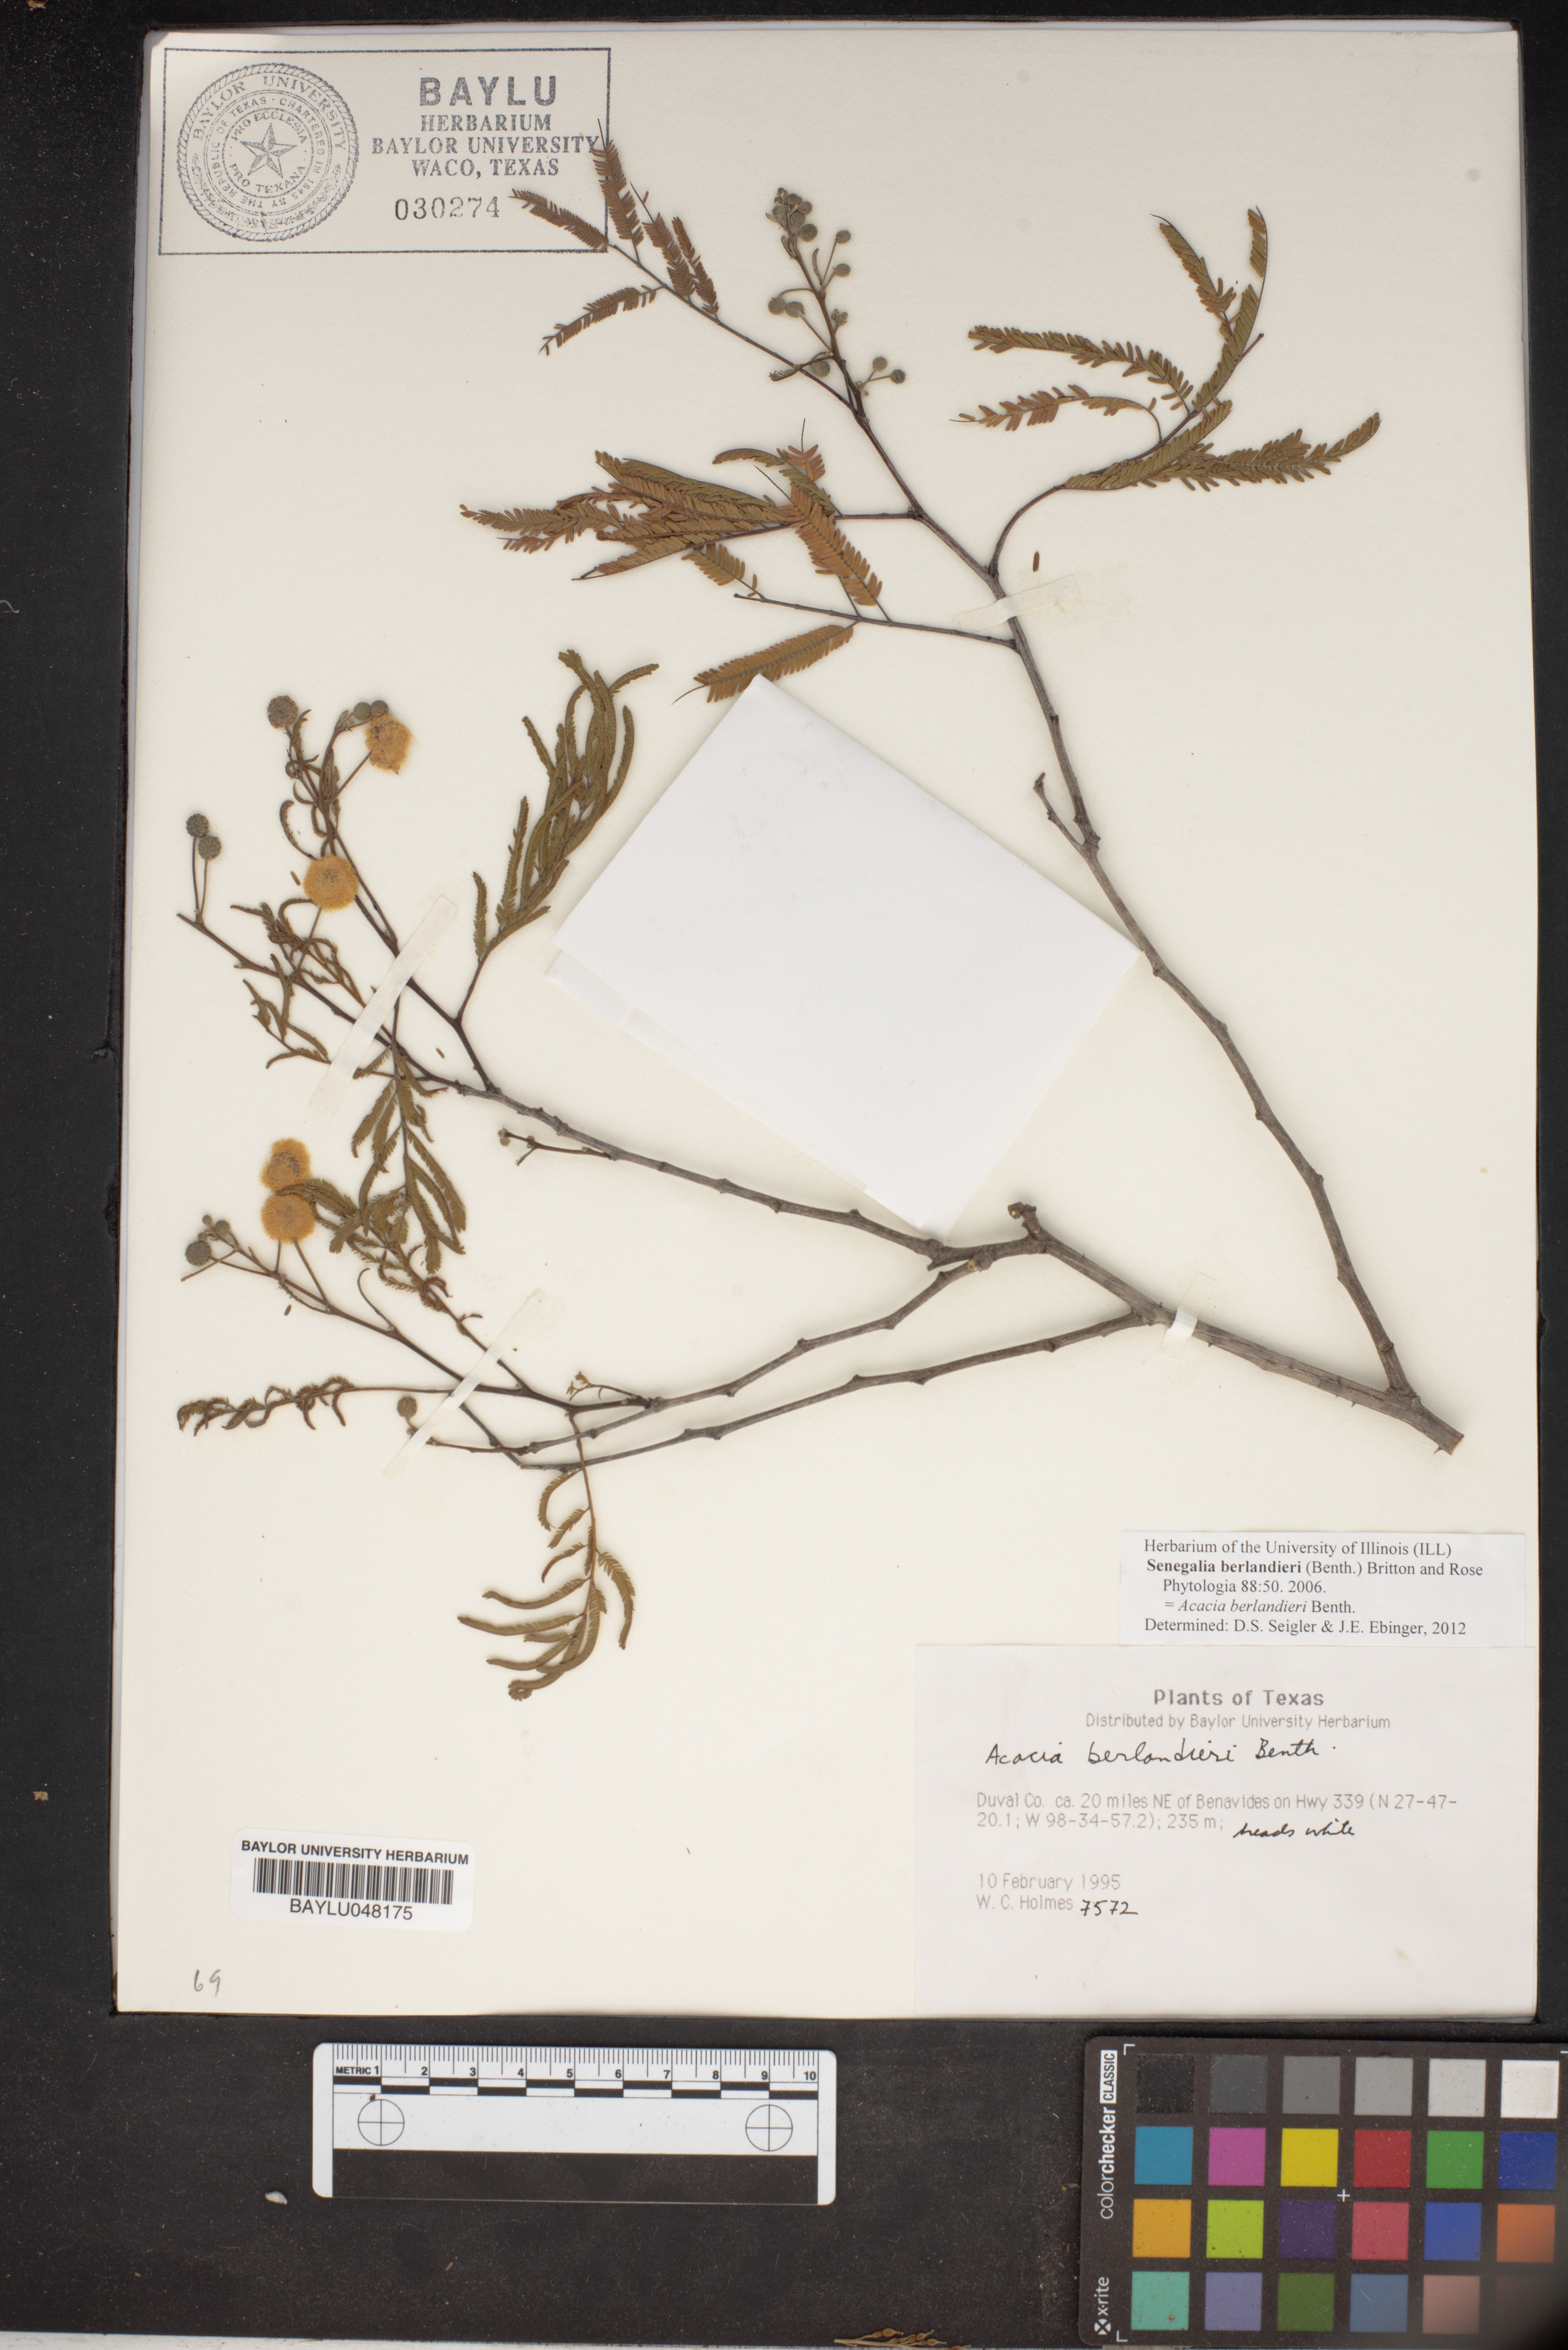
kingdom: Plantae
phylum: Tracheophyta
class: Magnoliopsida
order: Fabales
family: Fabaceae
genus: Senegalia
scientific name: Senegalia berlandieri
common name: Berlandier acacia
